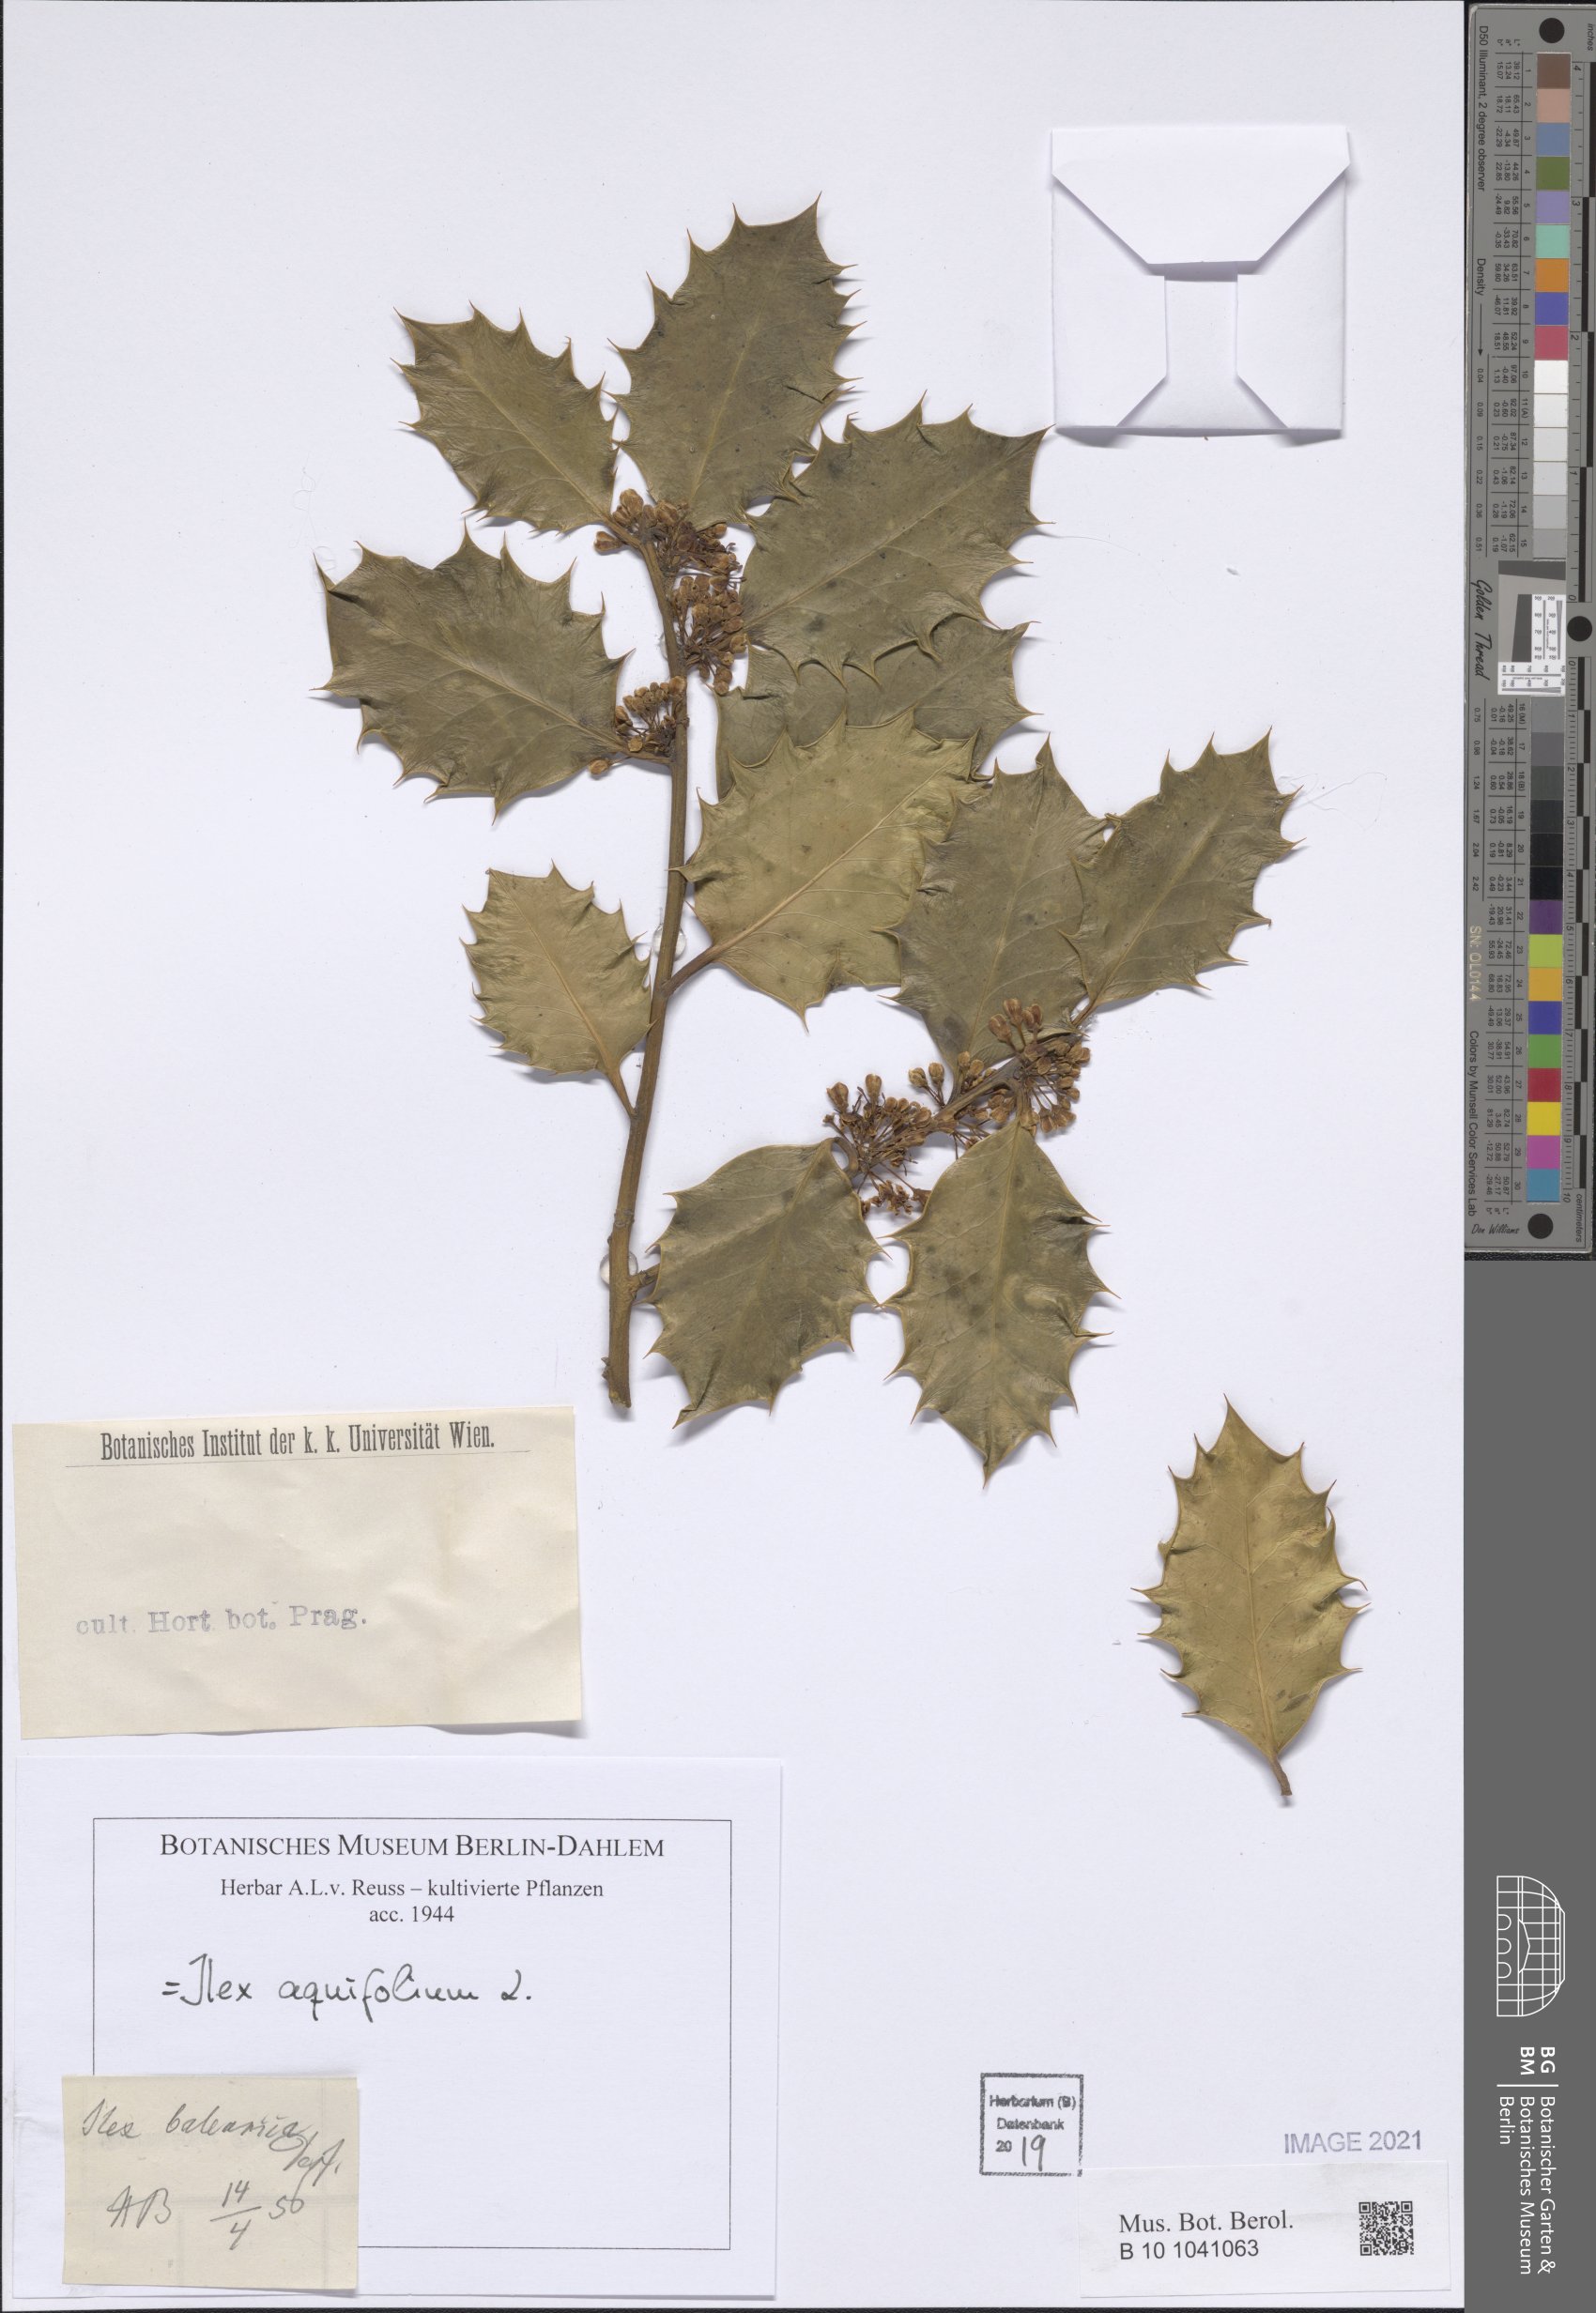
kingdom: Plantae
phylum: Tracheophyta
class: Magnoliopsida
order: Aquifoliales
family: Aquifoliaceae
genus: Ilex
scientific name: Ilex aquifolium
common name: English holly
